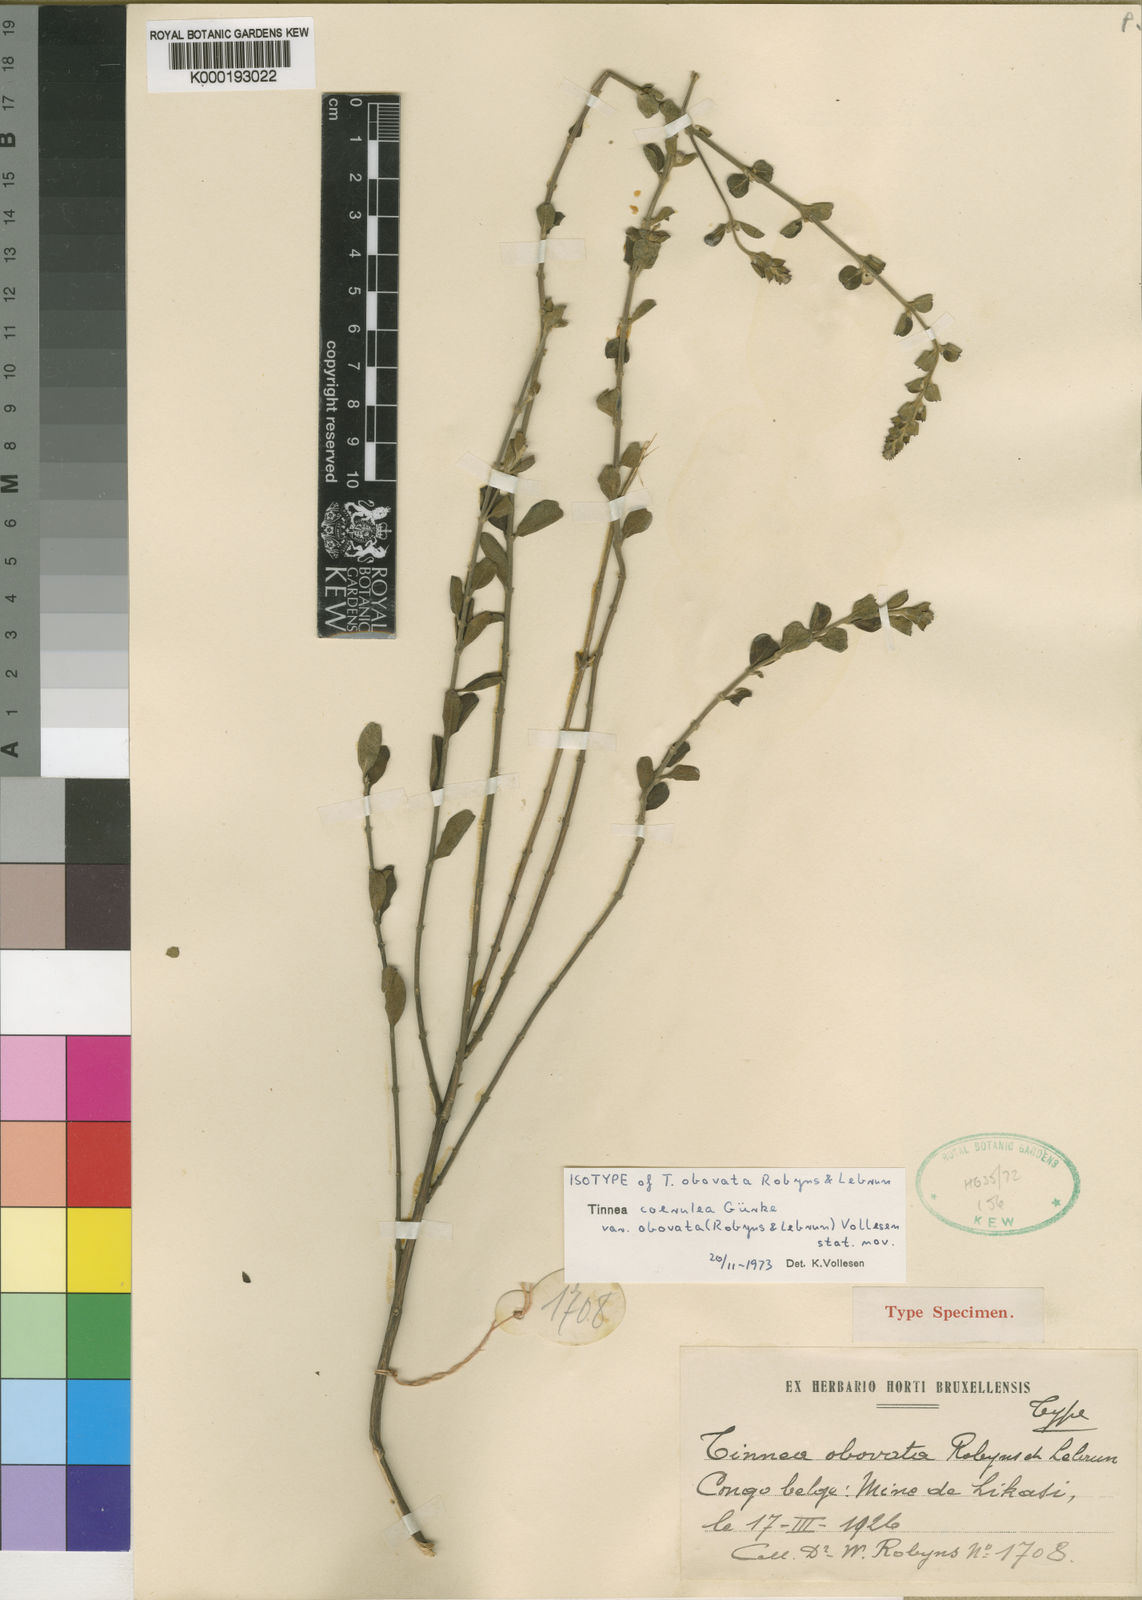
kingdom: Plantae
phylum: Tracheophyta
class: Magnoliopsida
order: Lamiales
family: Lamiaceae
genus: Tinnea
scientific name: Tinnea
